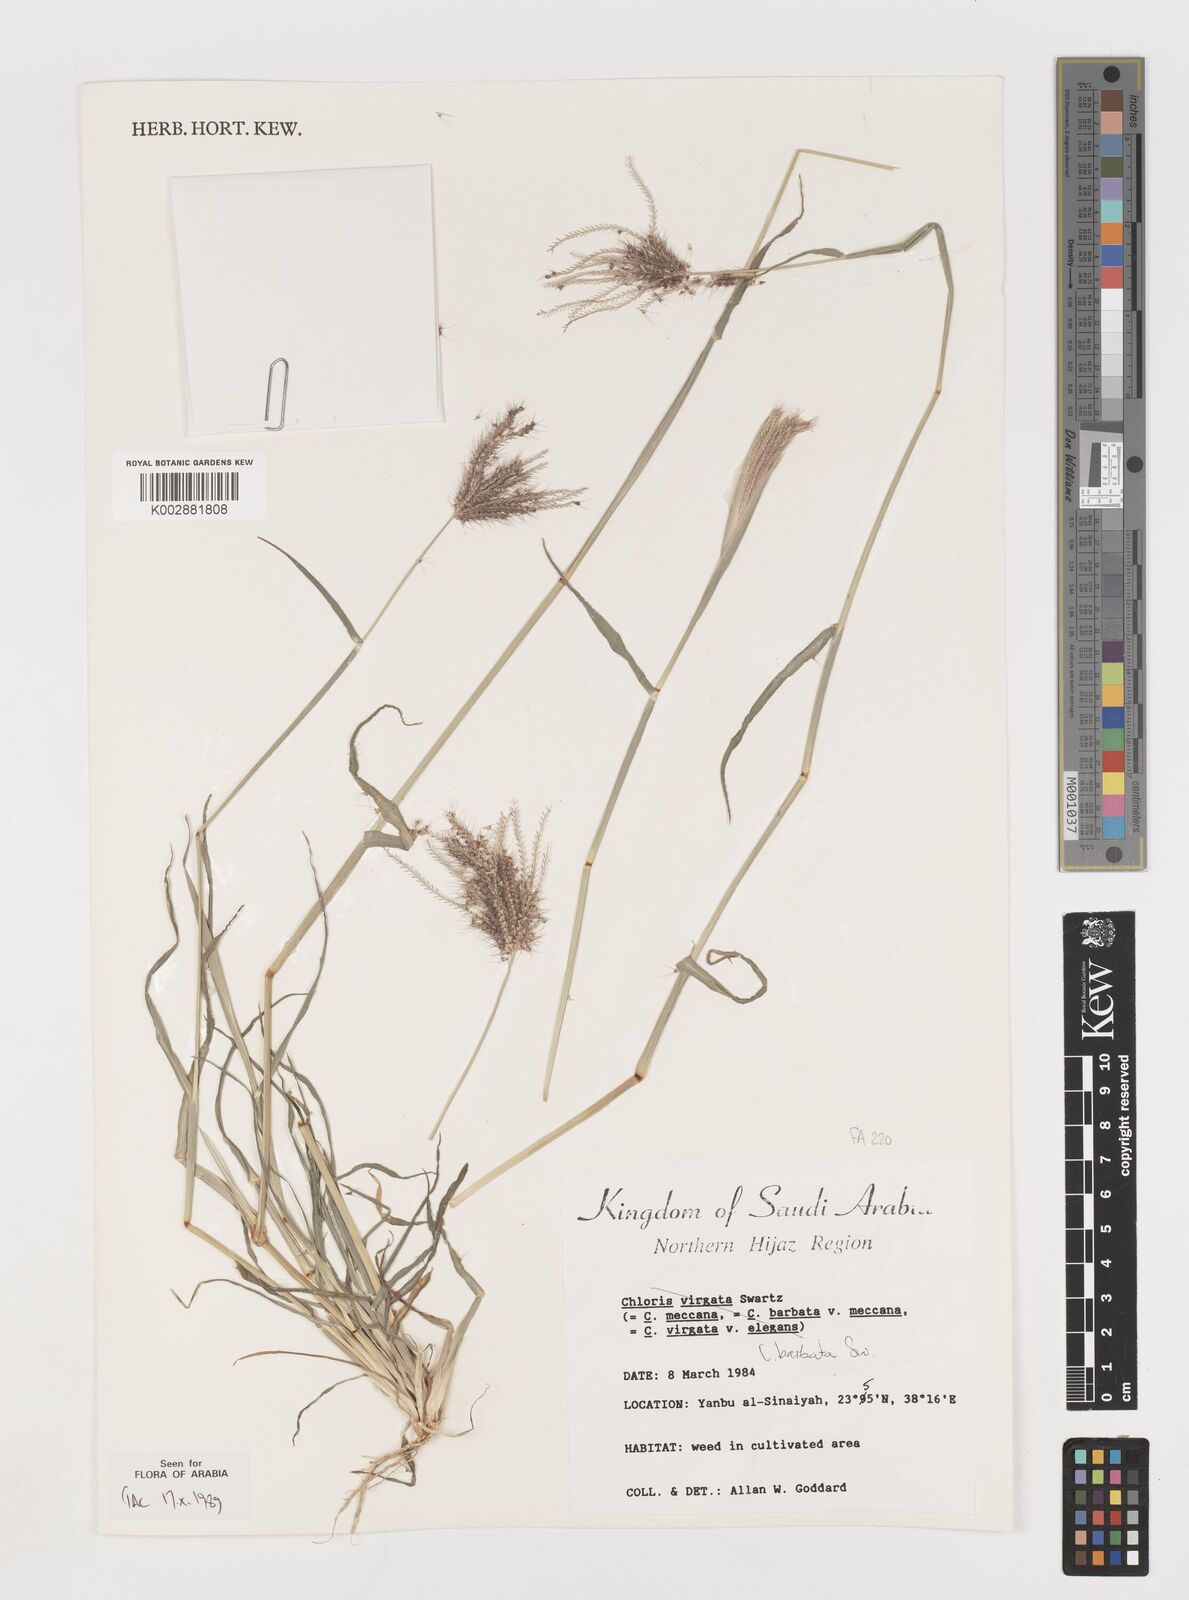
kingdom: Plantae
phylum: Tracheophyta
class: Liliopsida
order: Poales
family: Poaceae
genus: Chloris
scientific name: Chloris barbata
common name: Swollen fingergrass
